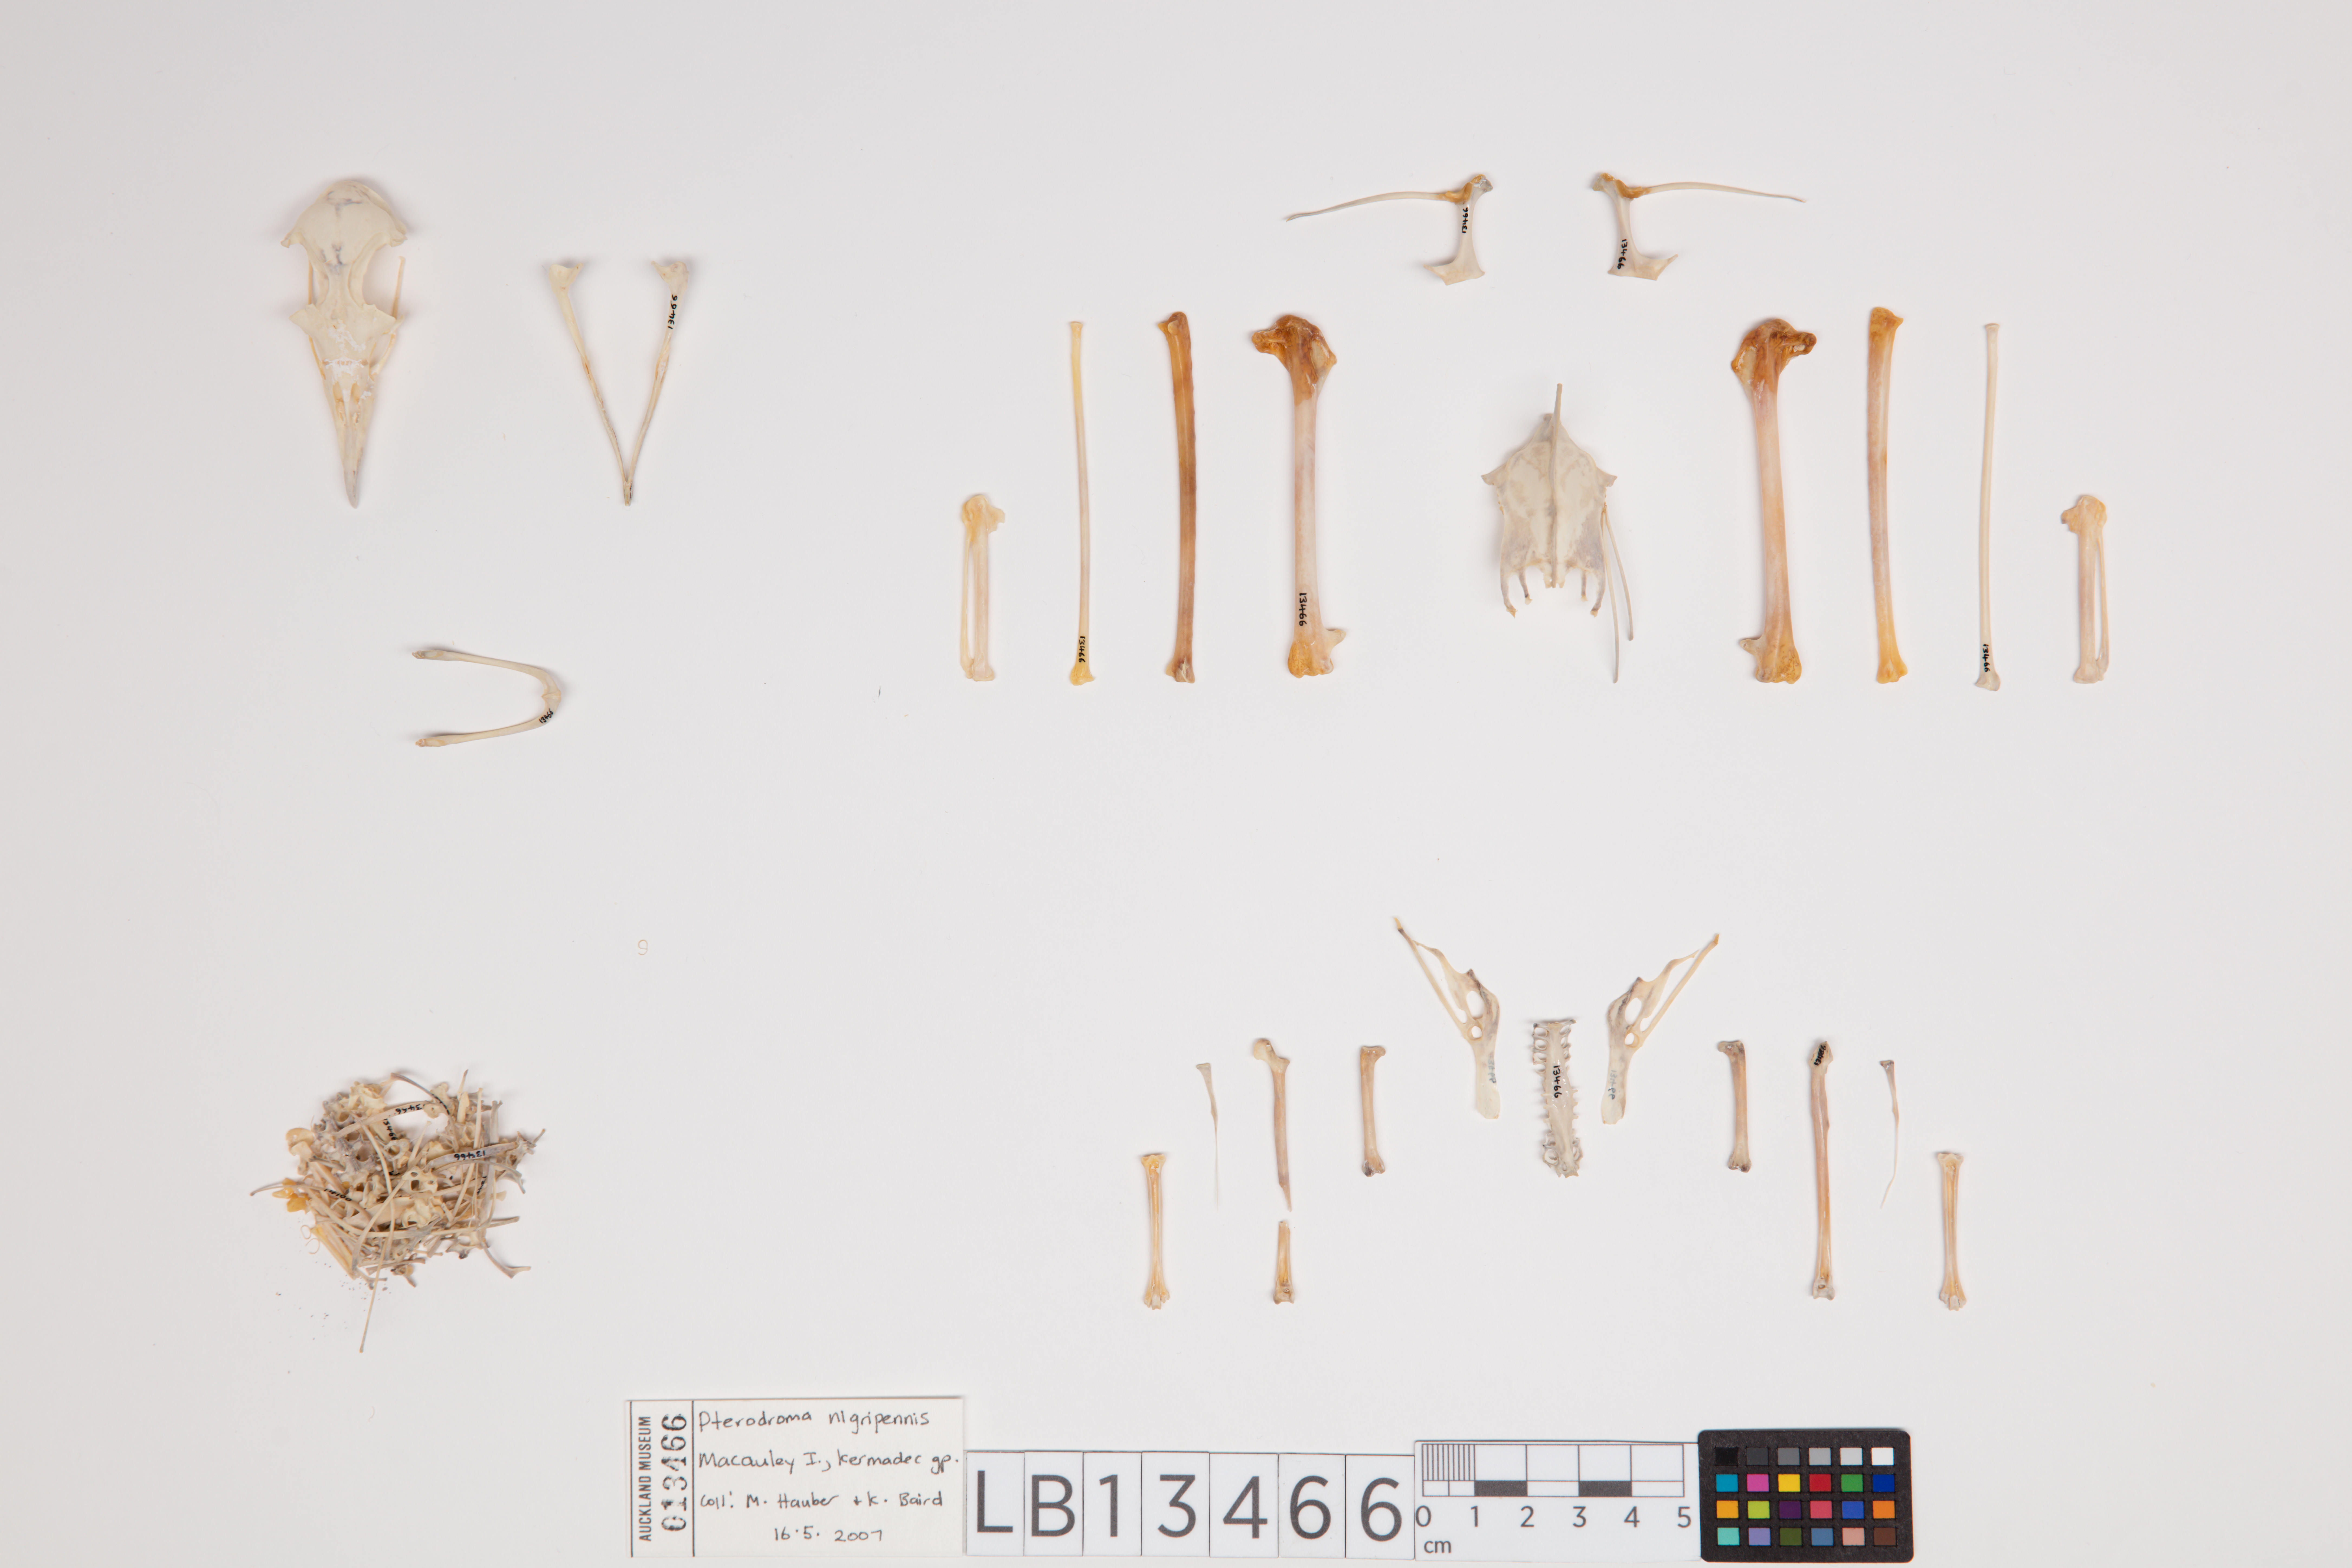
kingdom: Animalia
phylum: Chordata
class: Aves
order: Procellariiformes
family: Procellariidae
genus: Pterodroma
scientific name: Pterodroma nigripennis
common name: Black-winged petrel
